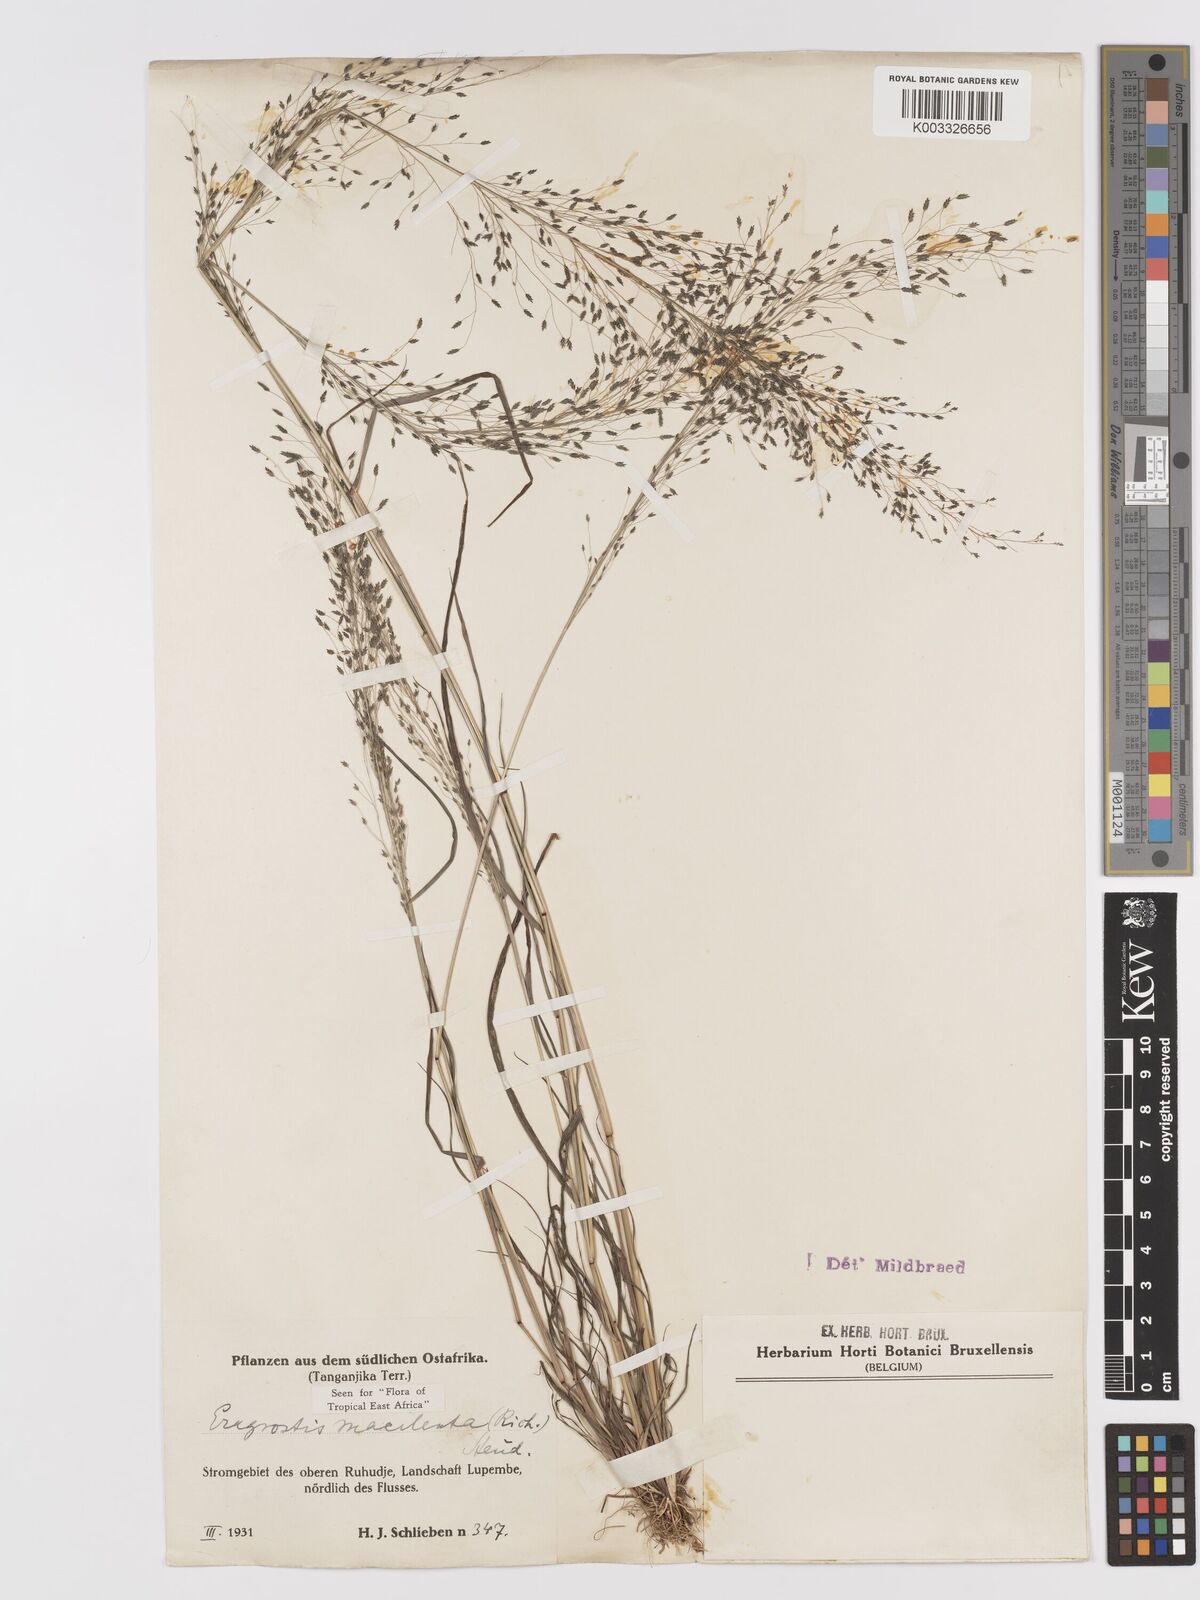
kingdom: Plantae
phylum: Tracheophyta
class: Liliopsida
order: Poales
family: Poaceae
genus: Eragrostis
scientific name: Eragrostis macilenta
